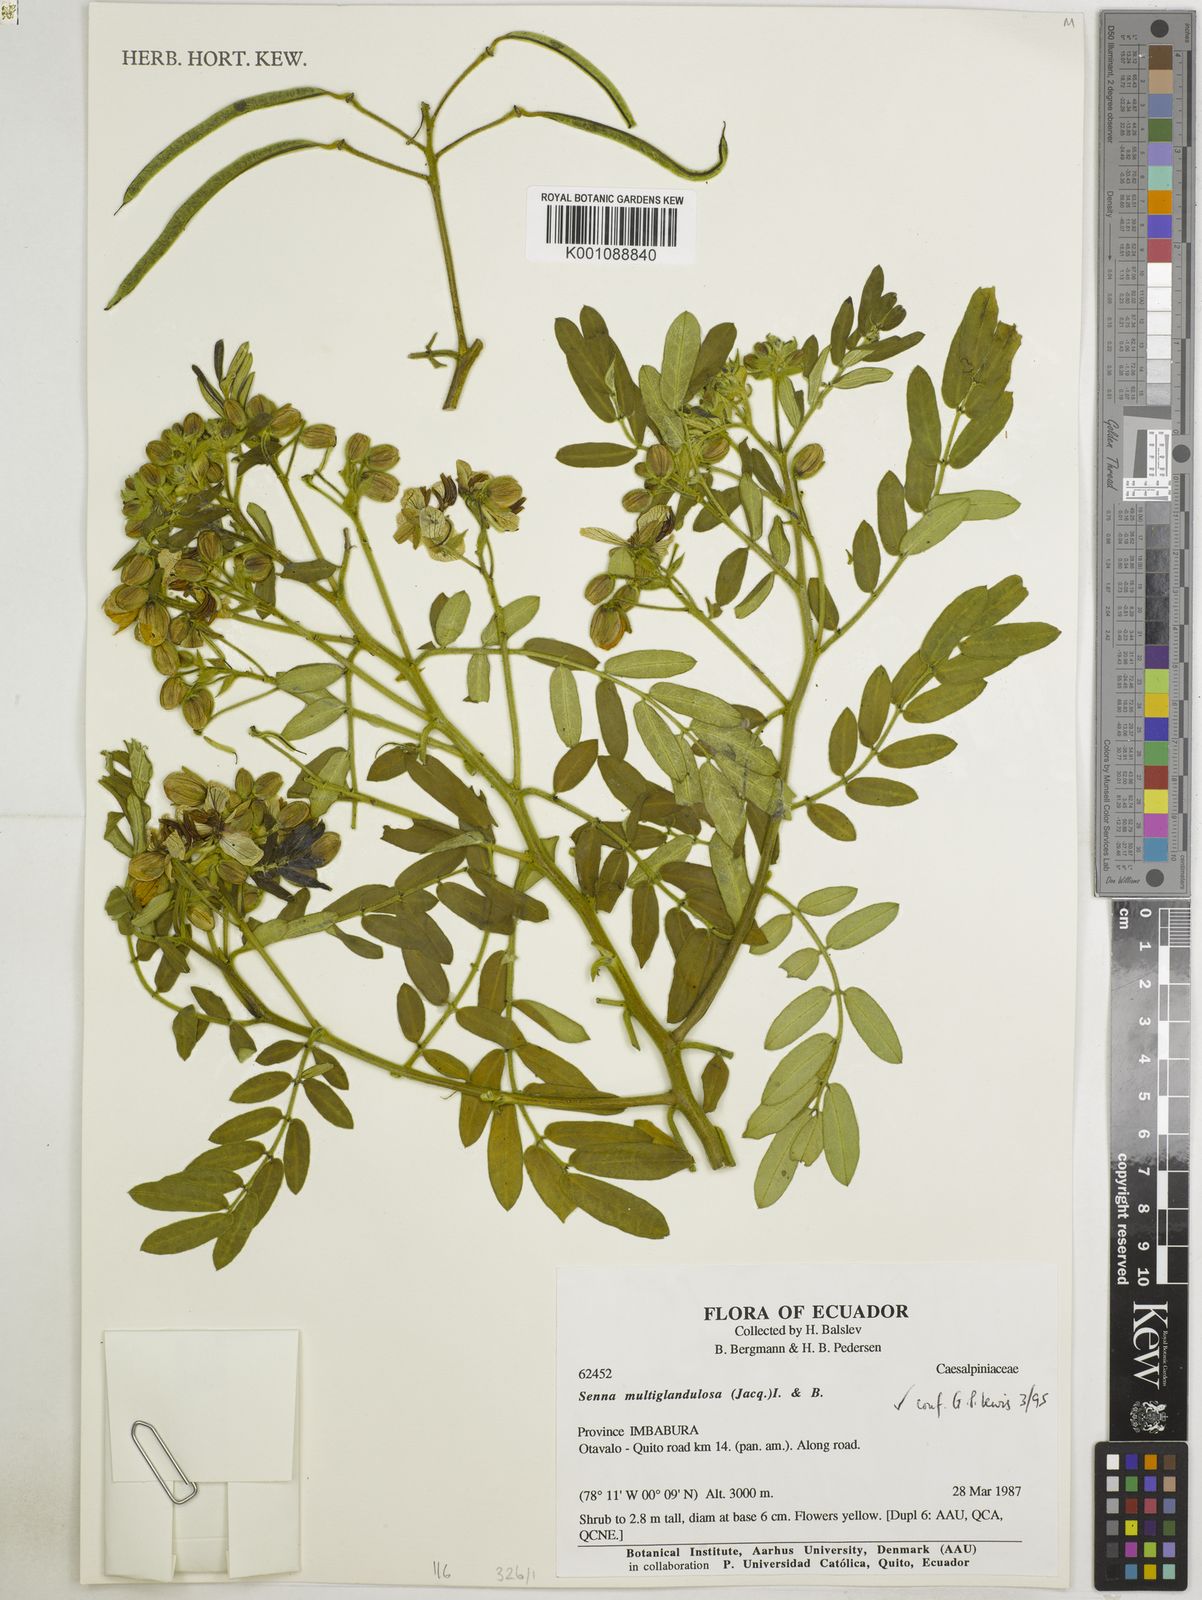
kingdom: Plantae
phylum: Tracheophyta
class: Magnoliopsida
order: Fabales
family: Fabaceae
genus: Senna
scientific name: Senna multiglandulosa
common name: Glandular senna
